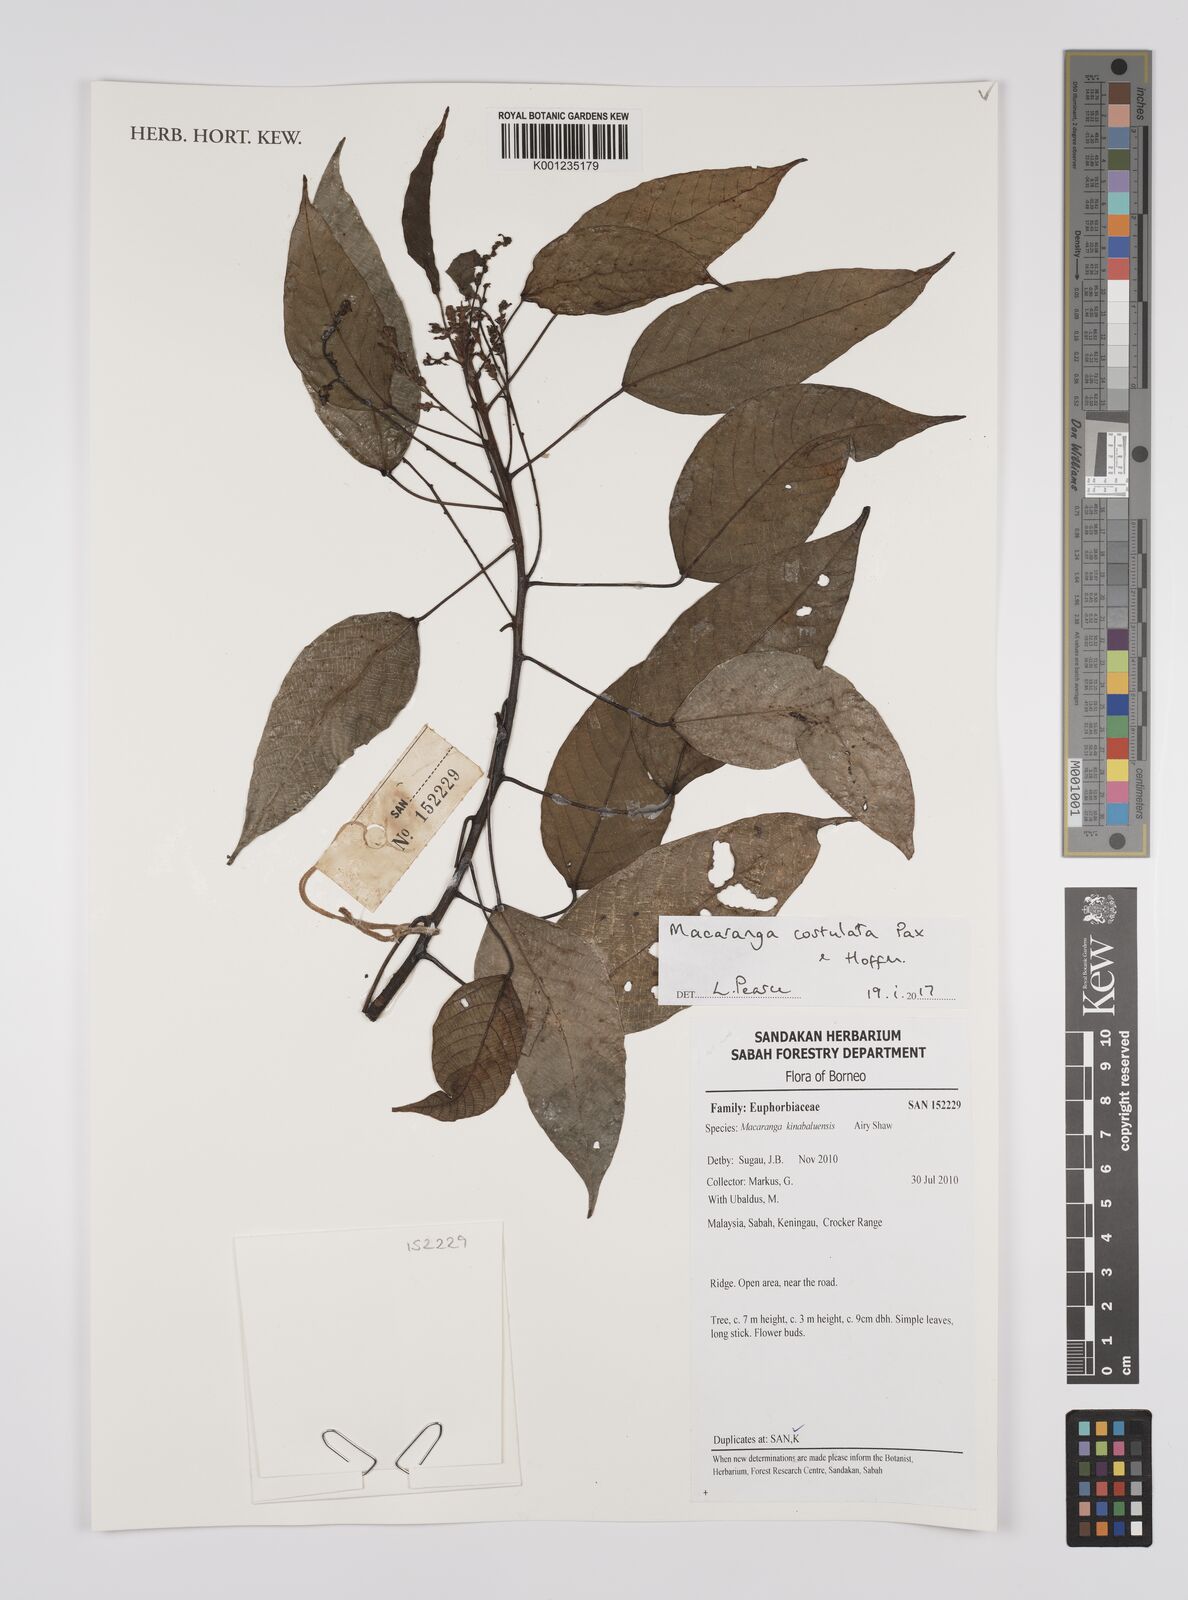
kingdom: Plantae
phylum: Tracheophyta
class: Magnoliopsida
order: Malpighiales
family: Euphorbiaceae
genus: Macaranga
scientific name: Macaranga costulata
